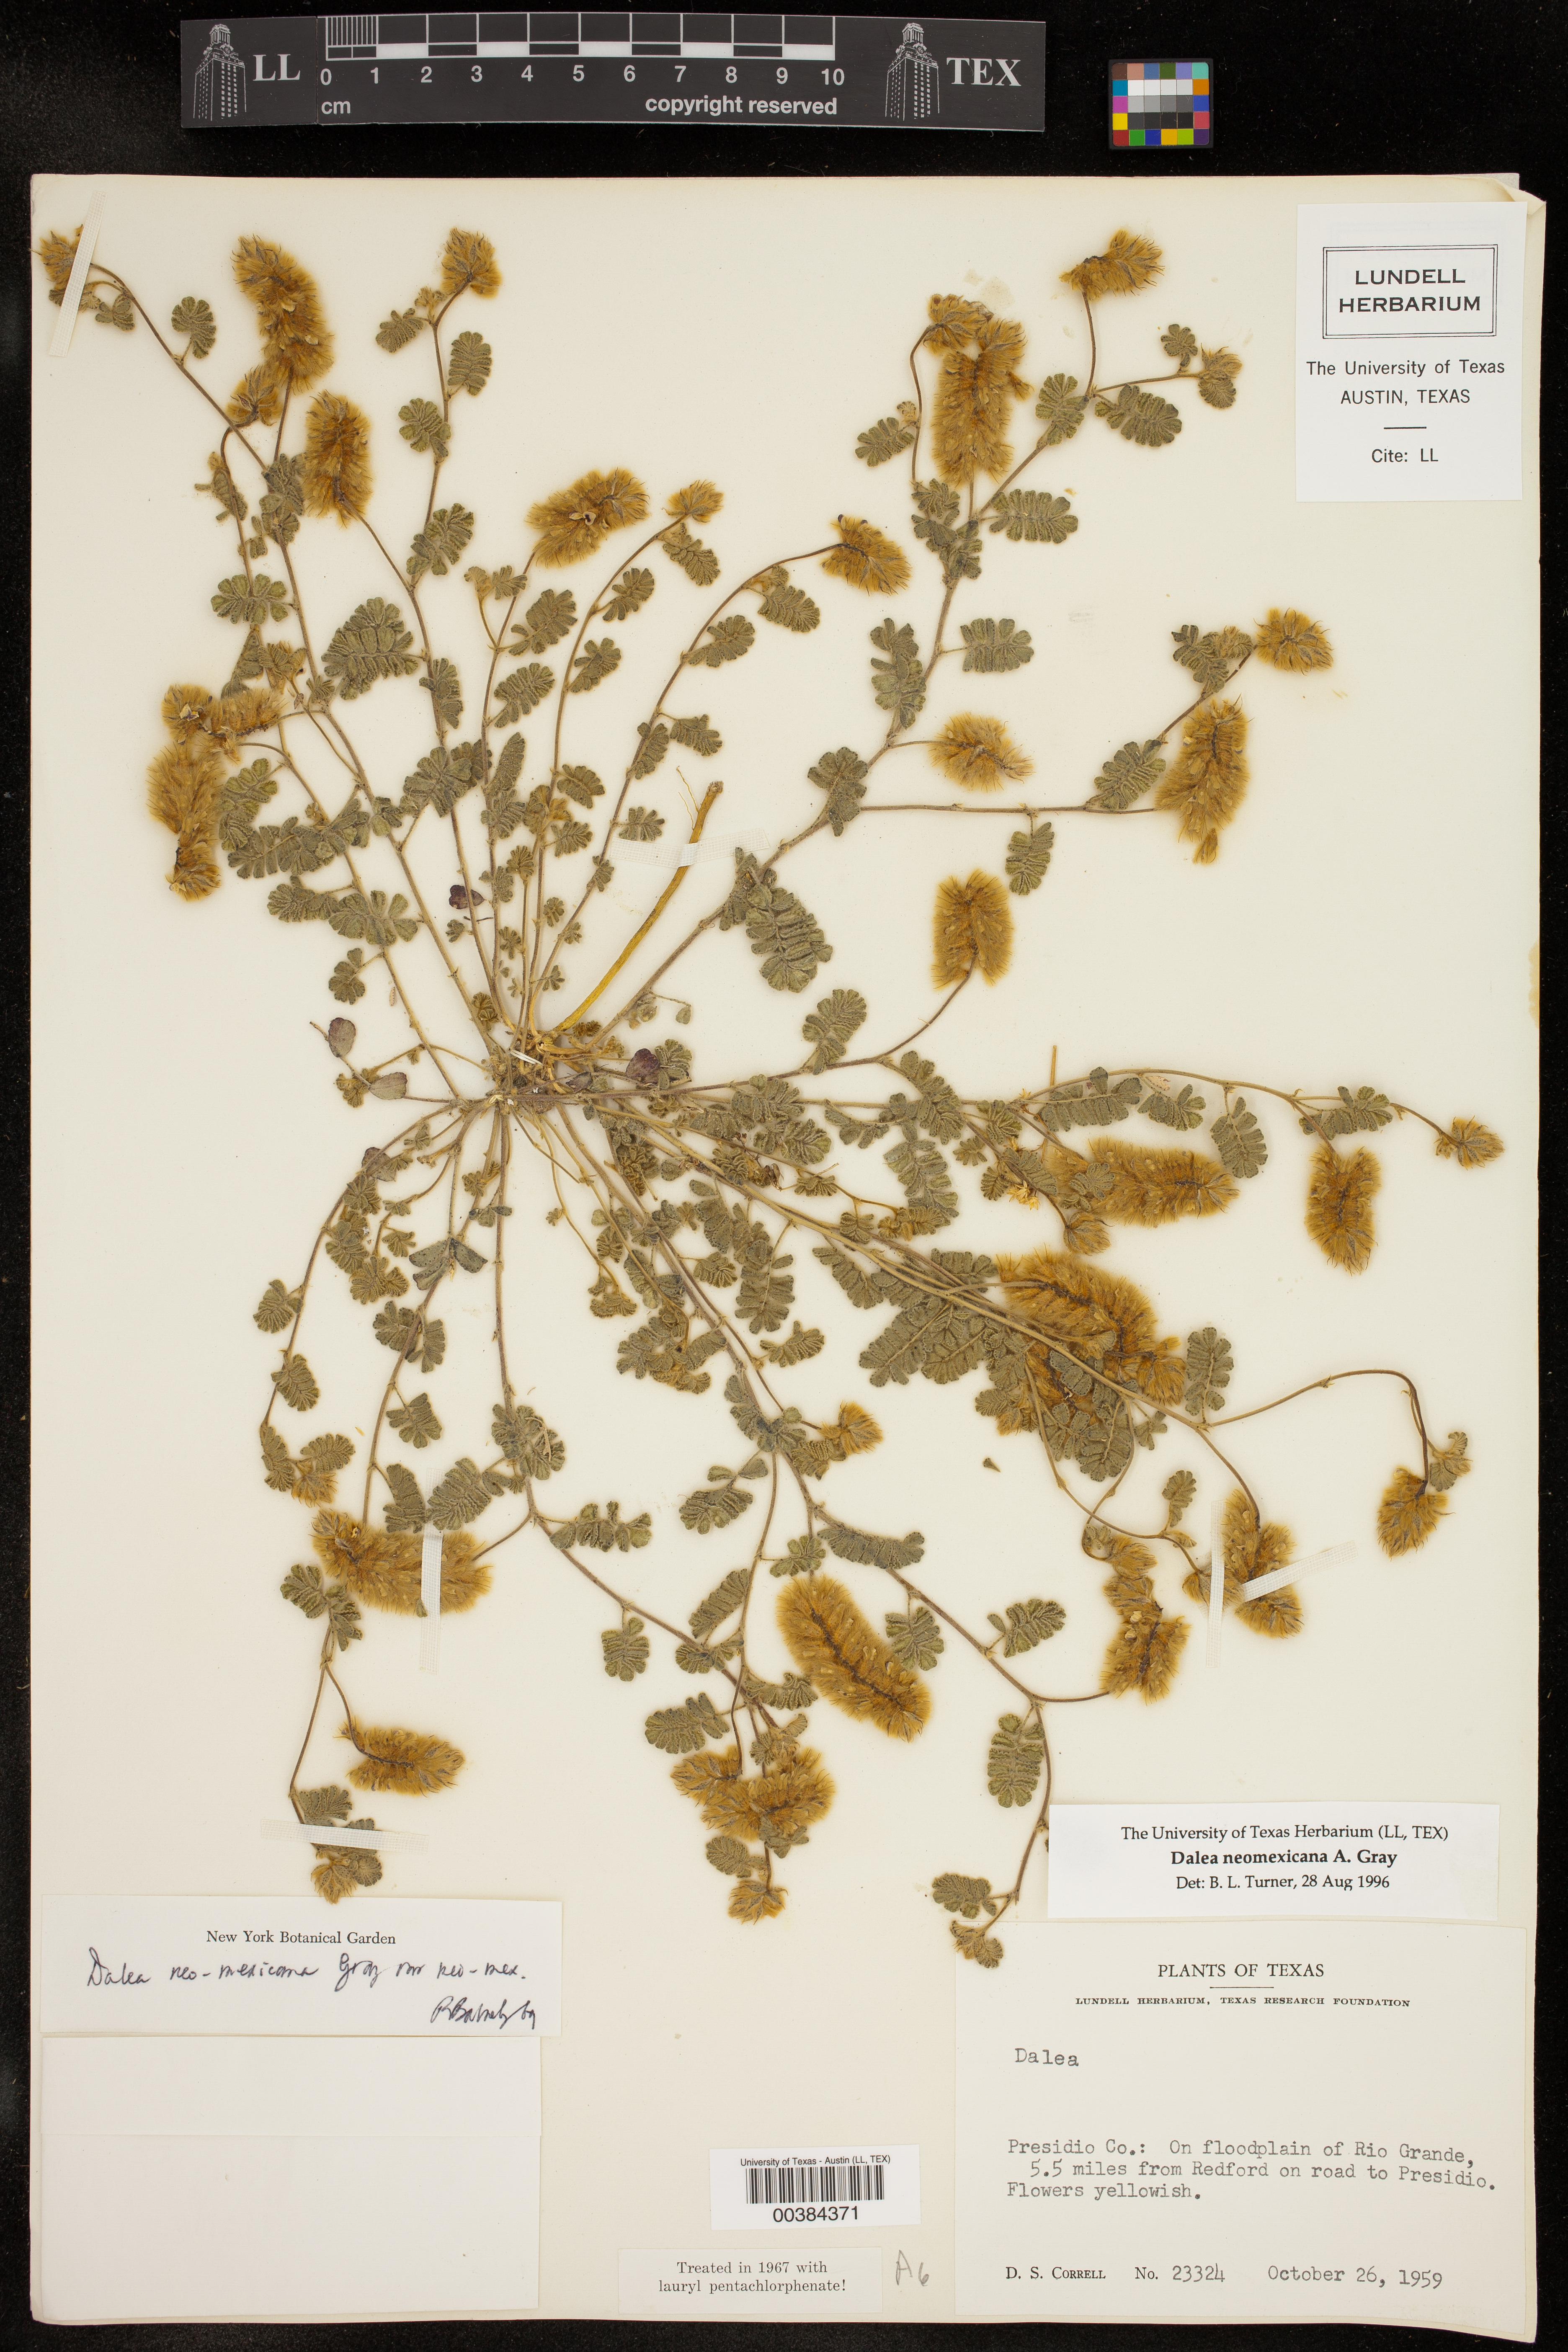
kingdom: Plantae
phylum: Tracheophyta
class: Magnoliopsida
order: Fabales
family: Fabaceae
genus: Dalea
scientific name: Dalea neomexicana
